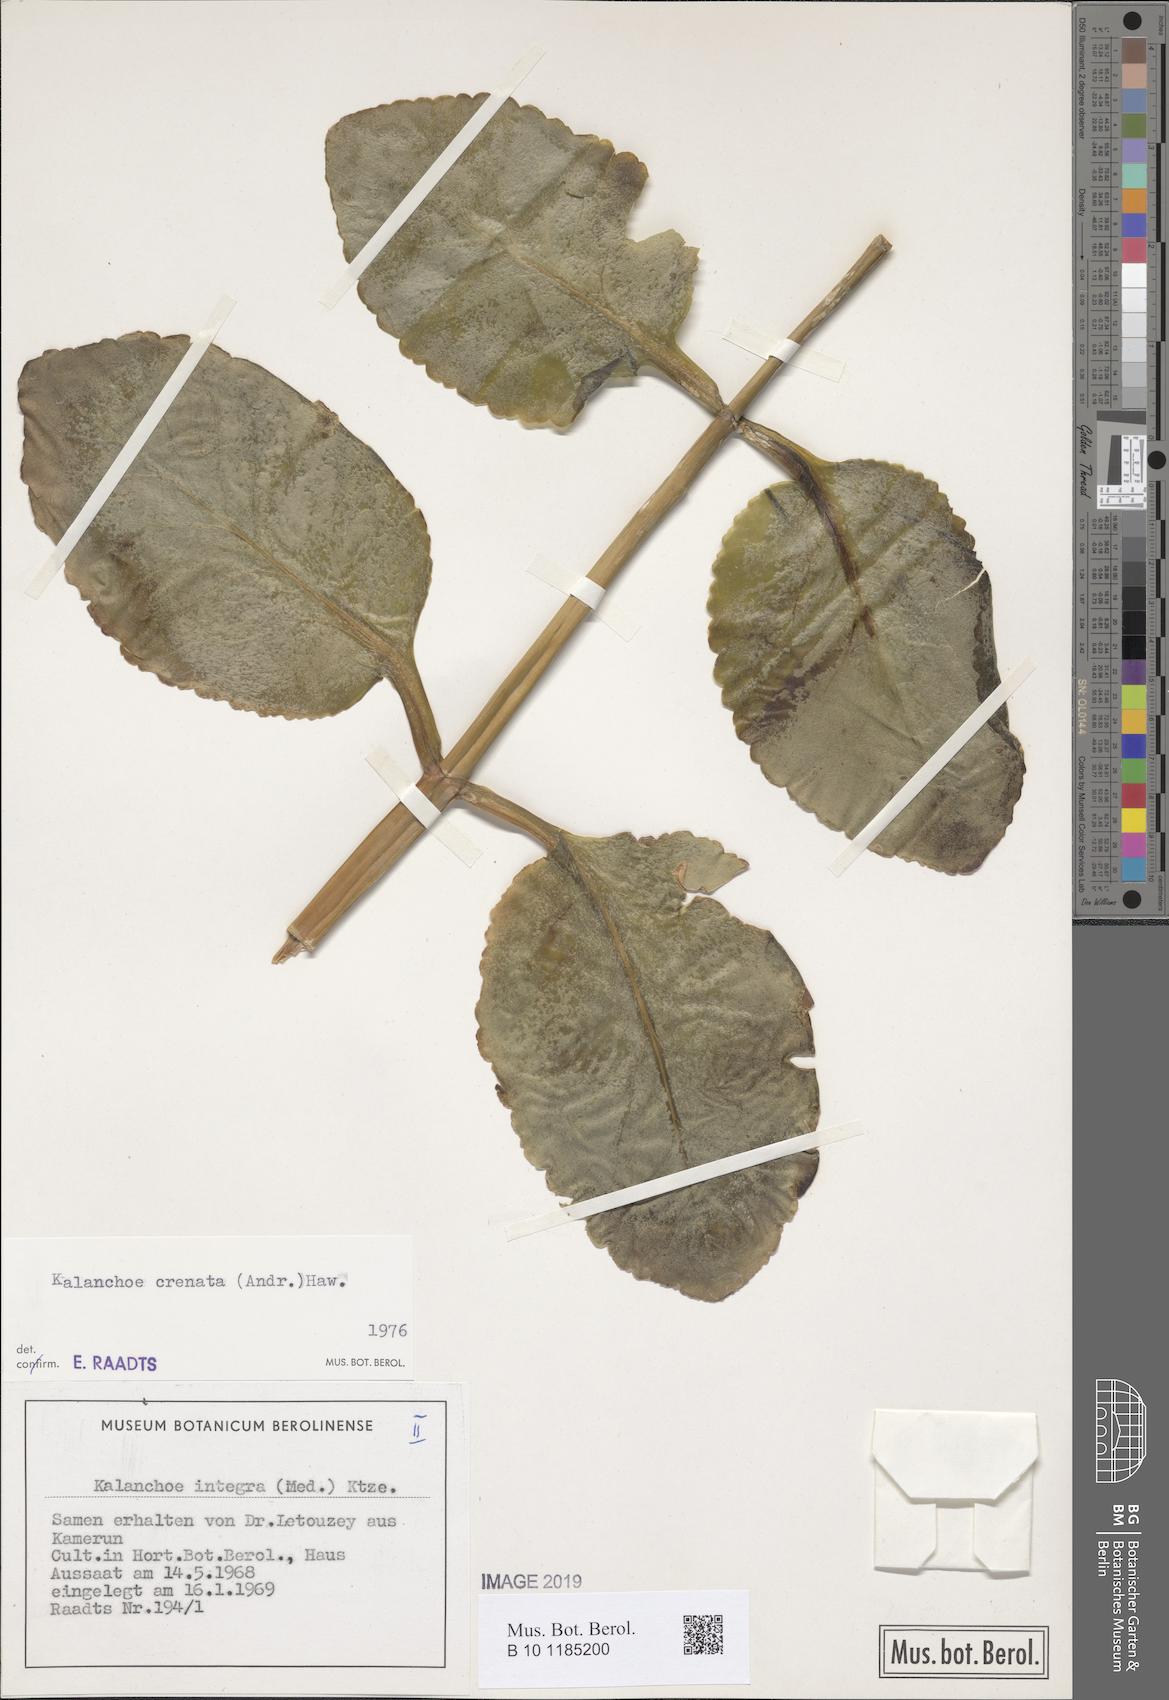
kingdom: Plantae
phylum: Tracheophyta
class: Magnoliopsida
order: Saxifragales
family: Crassulaceae
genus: Kalanchoe
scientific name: Kalanchoe crenata
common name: Neverdie
